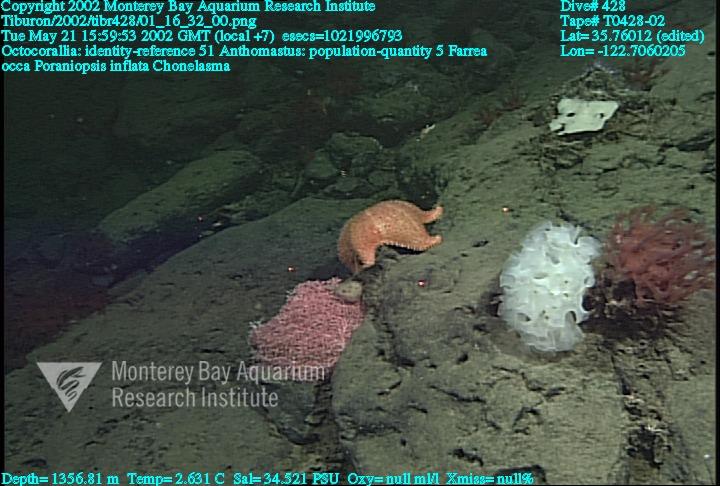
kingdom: Animalia
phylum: Porifera
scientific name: Porifera
